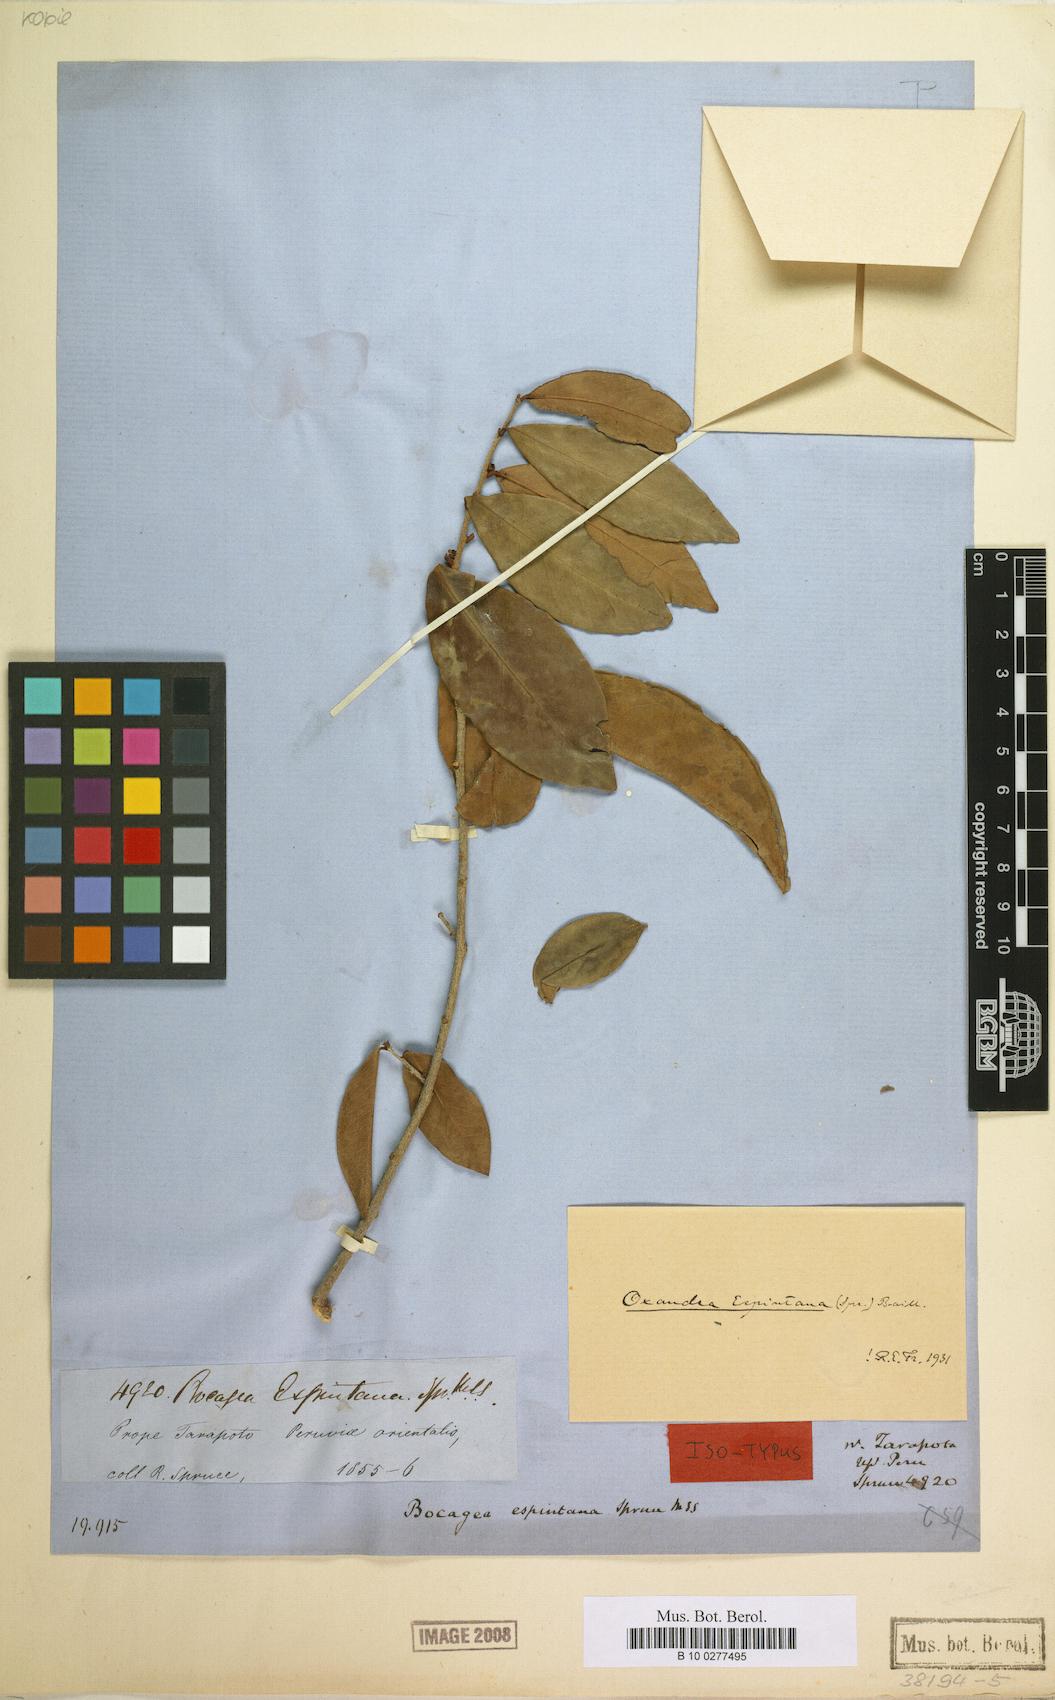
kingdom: Plantae
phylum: Tracheophyta
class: Magnoliopsida
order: Magnoliales
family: Annonaceae
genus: Oxandra
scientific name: Oxandra espintana
